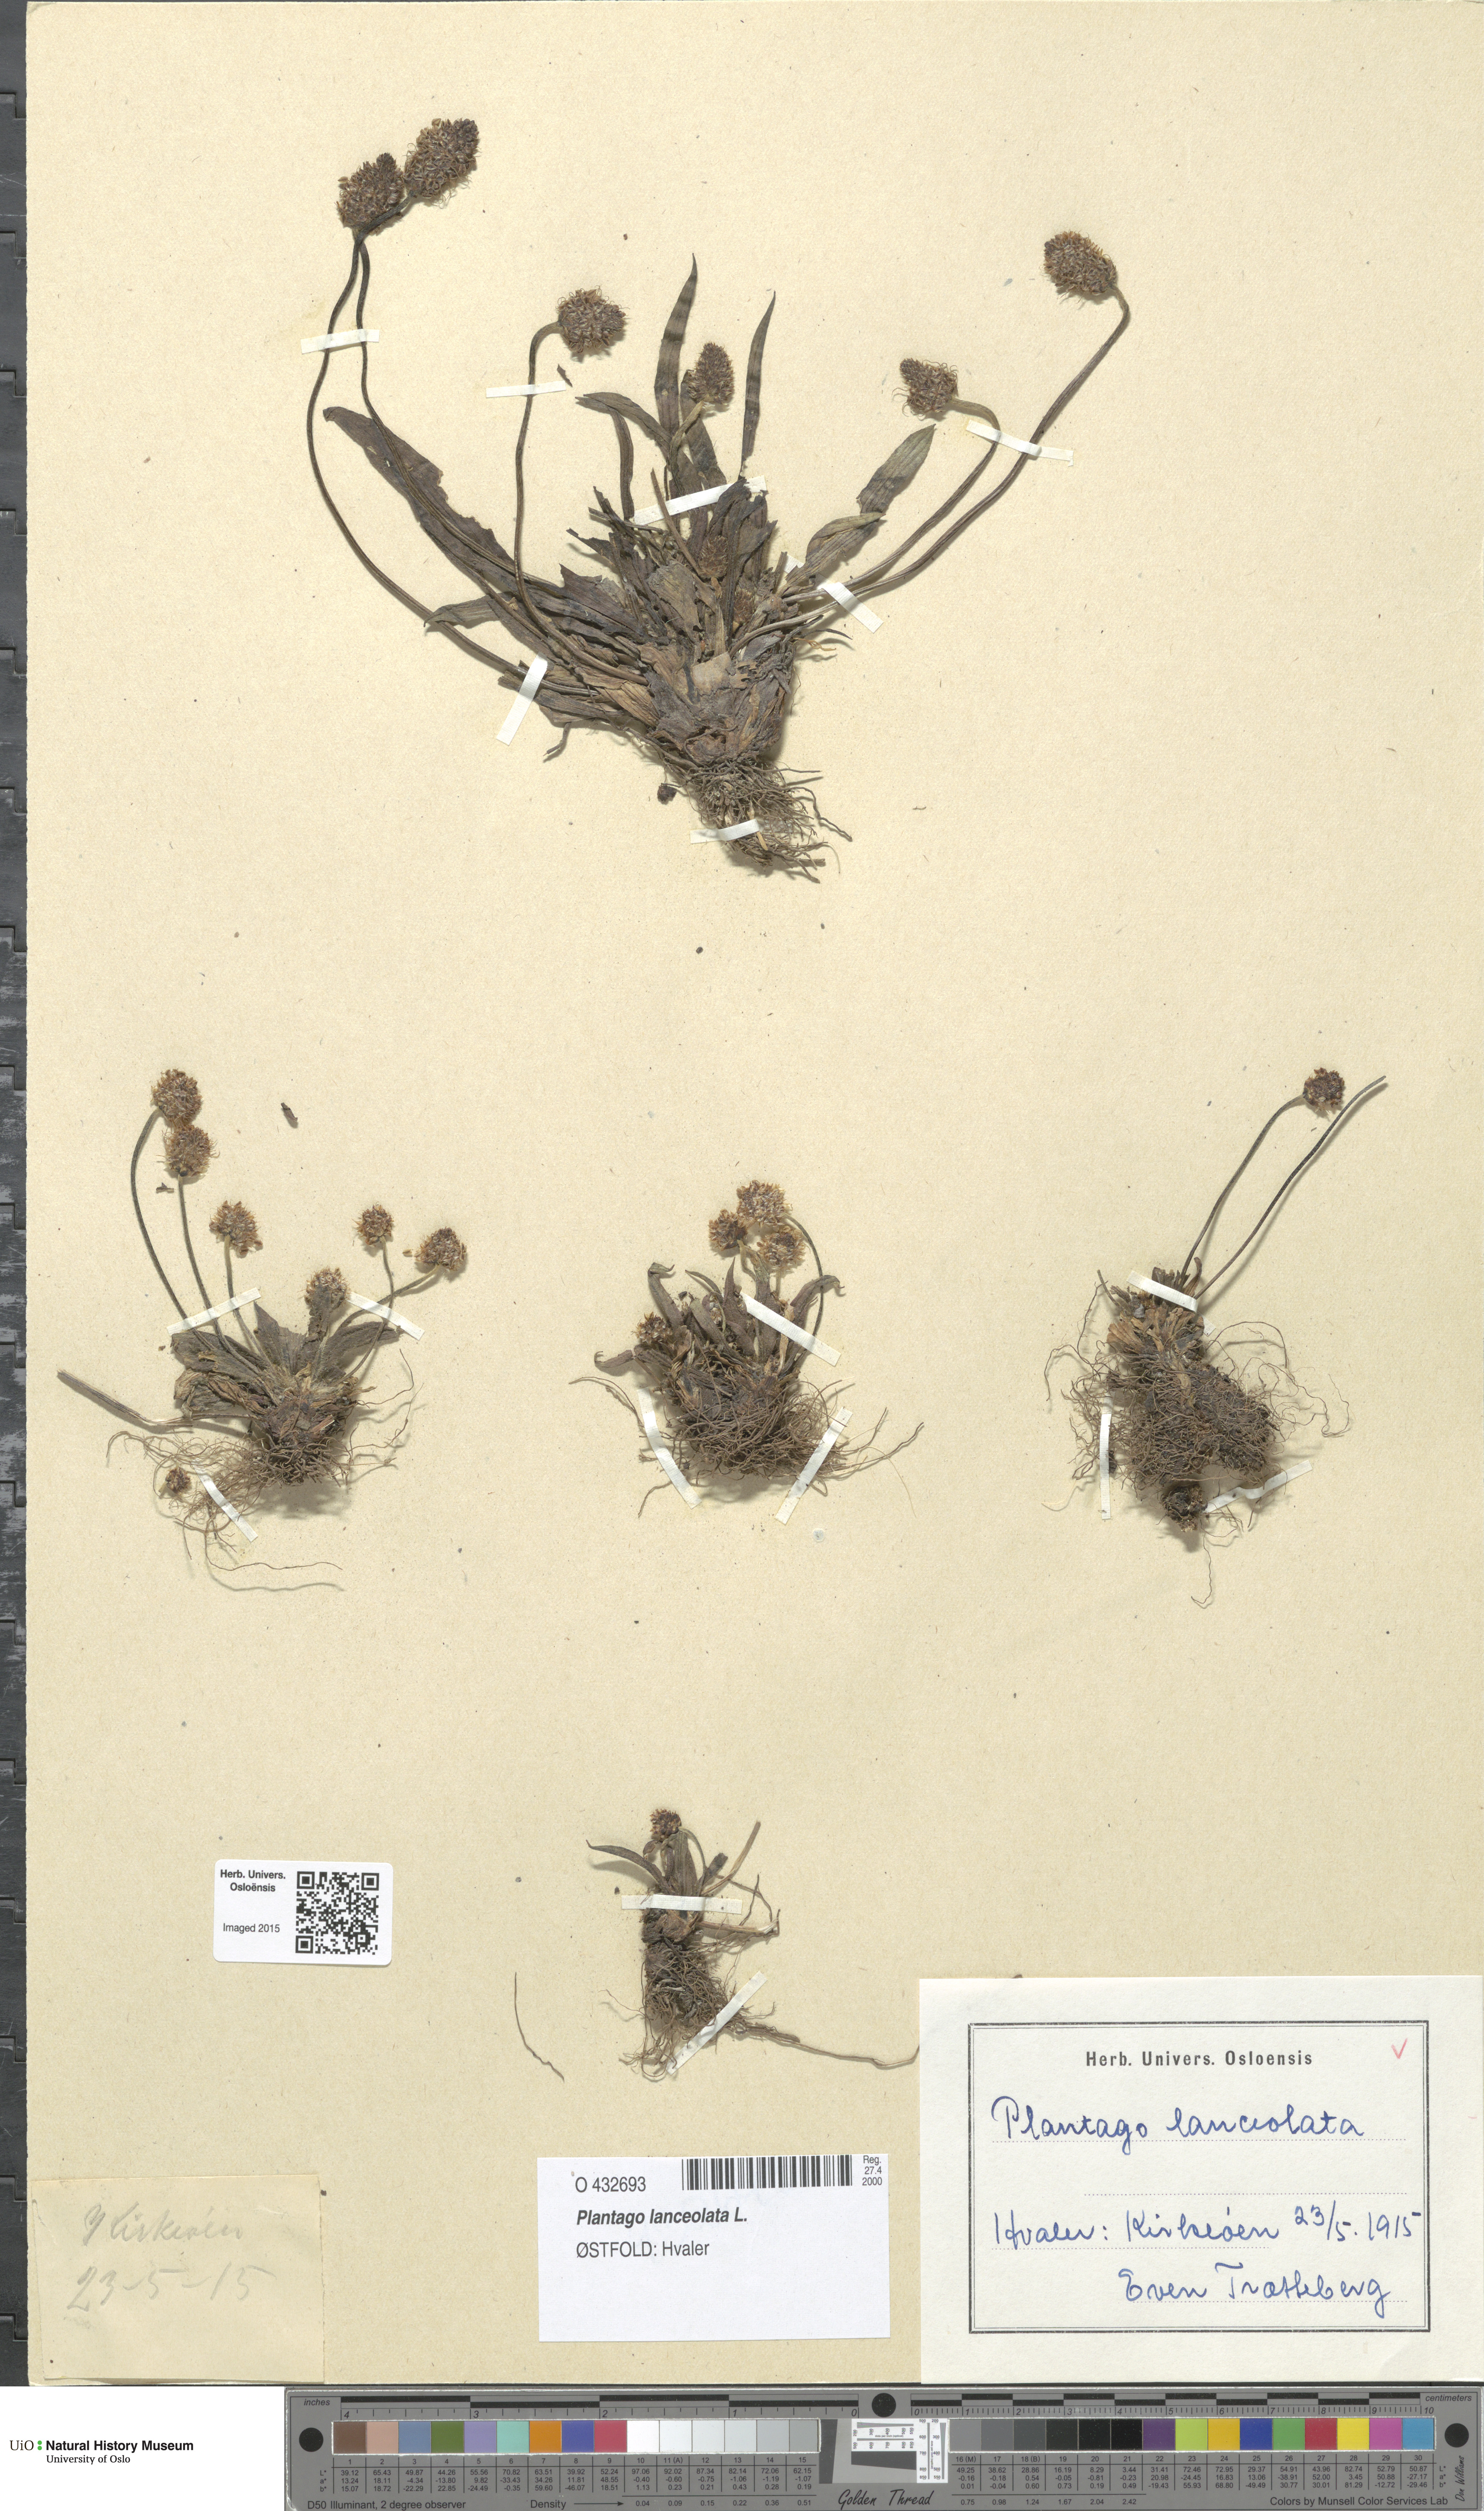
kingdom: Plantae
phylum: Tracheophyta
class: Magnoliopsida
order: Lamiales
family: Plantaginaceae
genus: Plantago
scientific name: Plantago lanceolata
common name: Ribwort plantain
